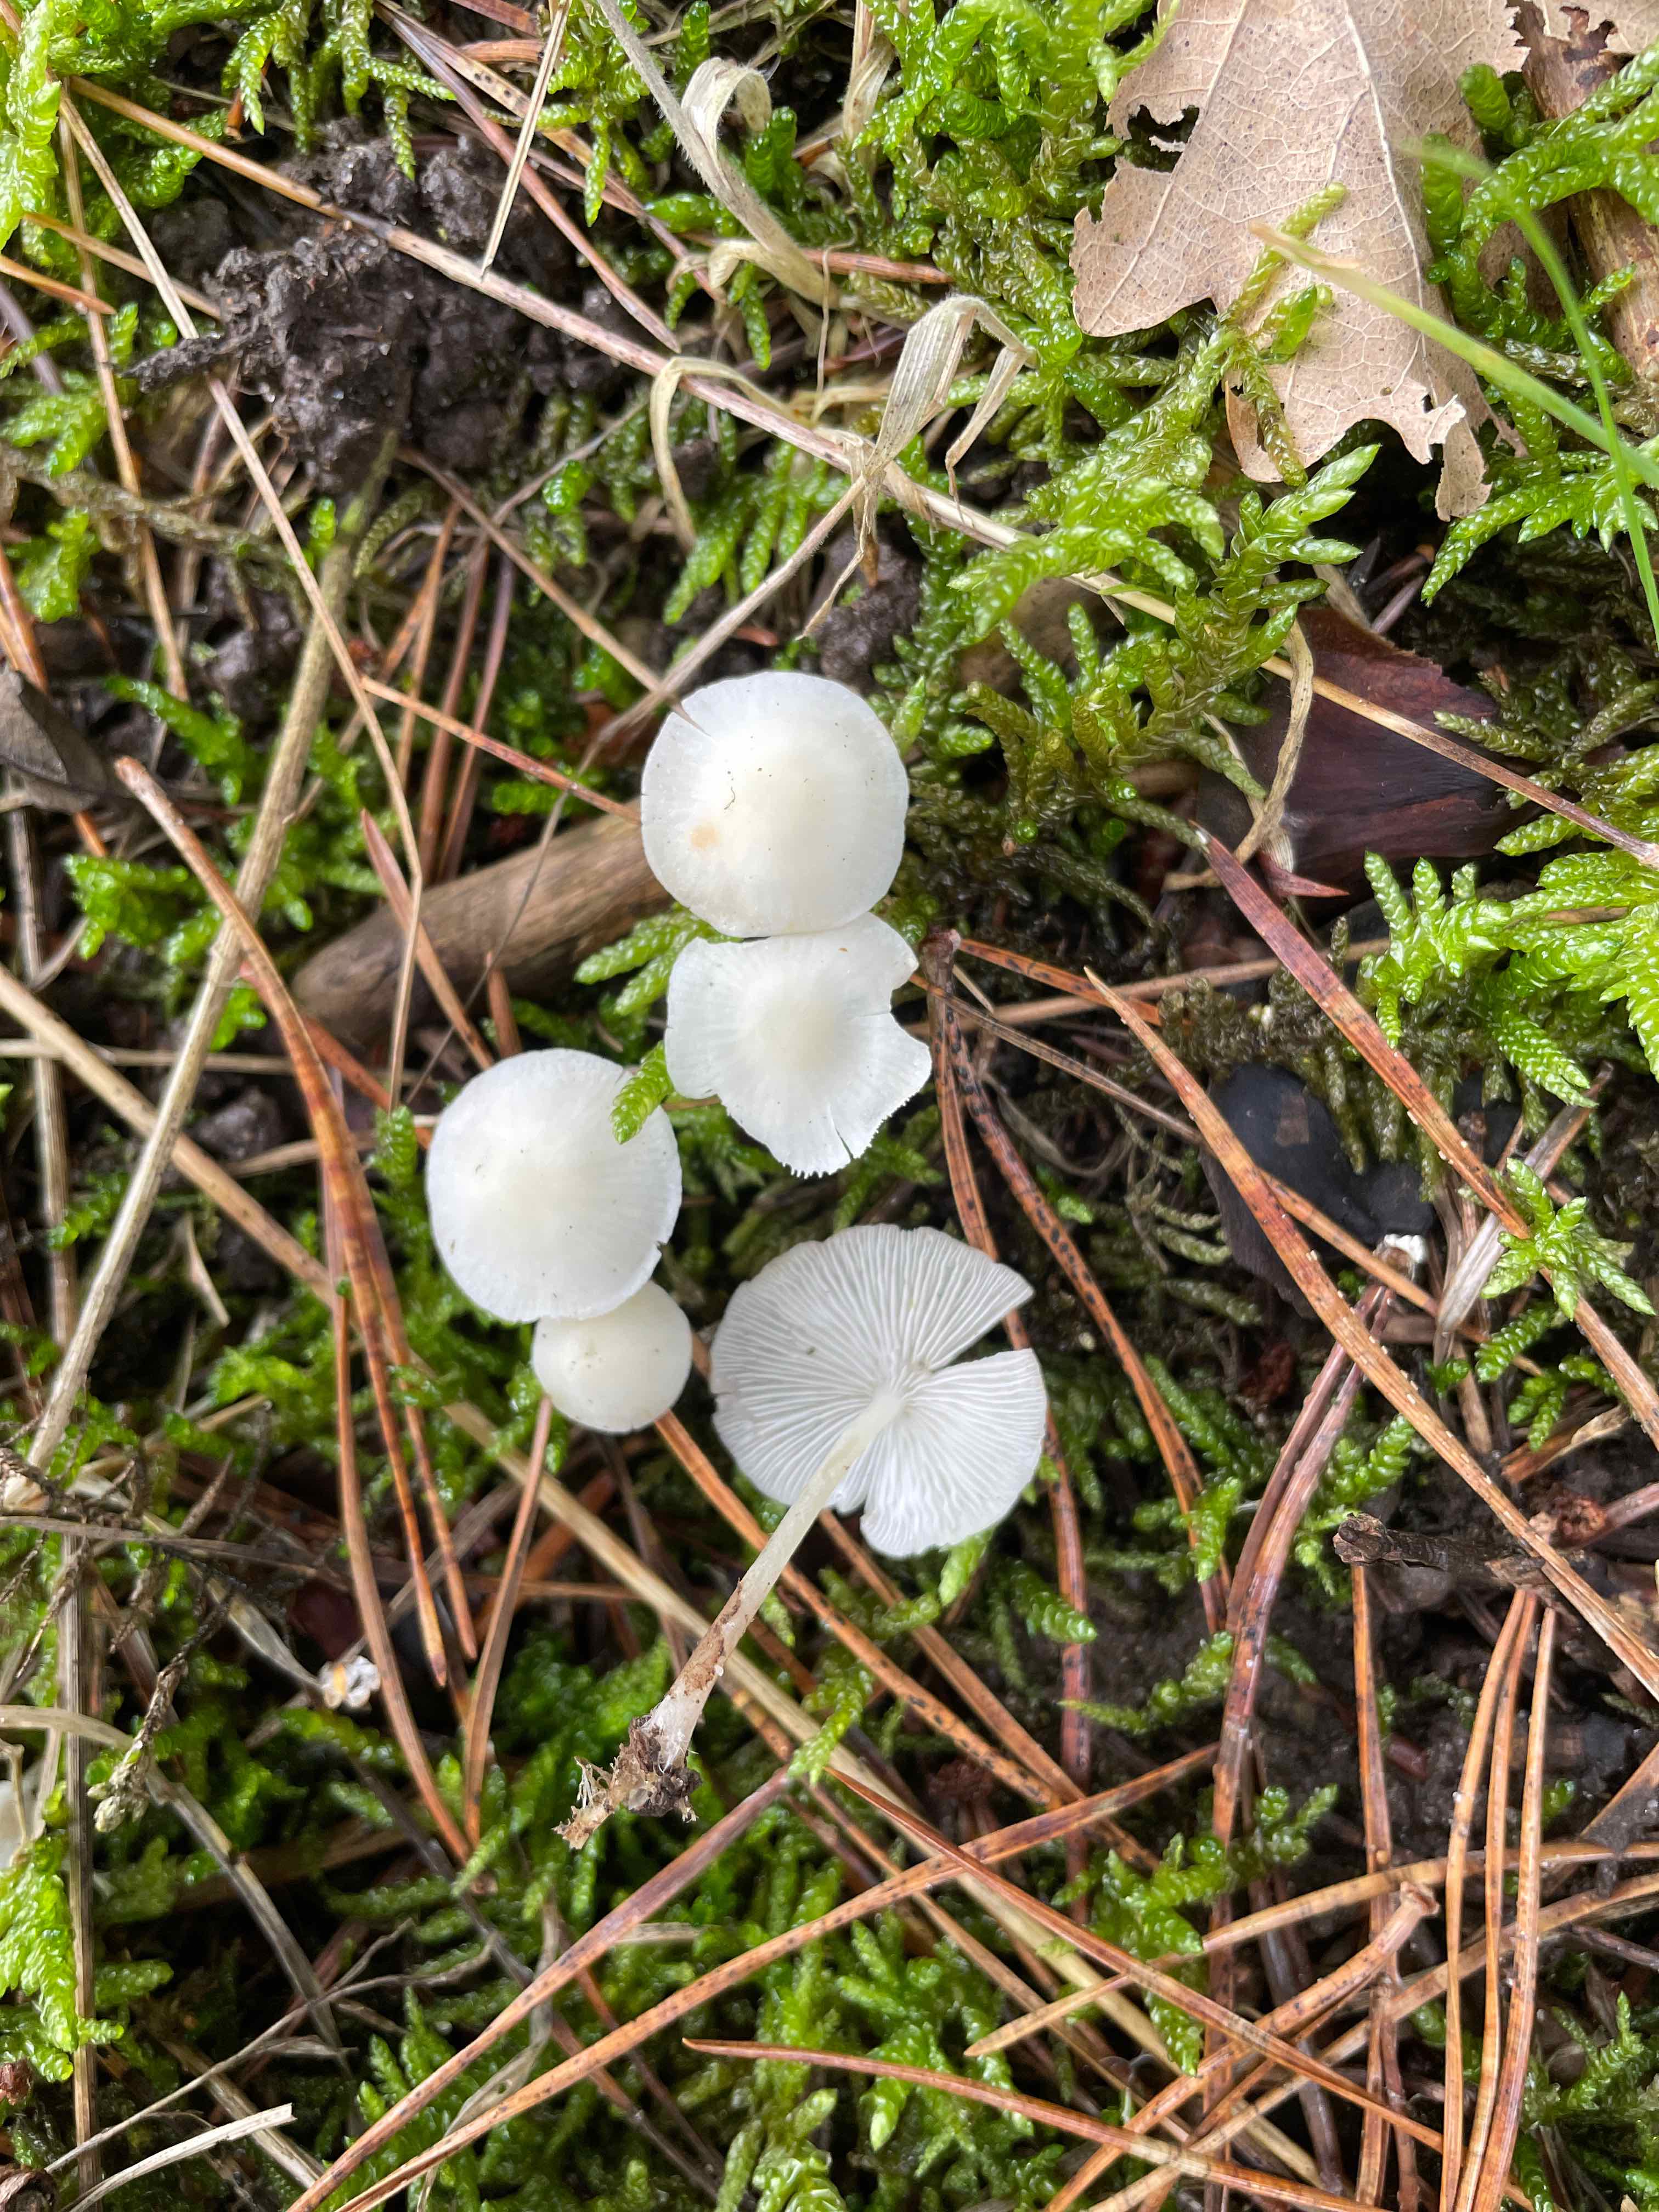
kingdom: Fungi
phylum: Basidiomycota
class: Agaricomycetes
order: Agaricales
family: Mycenaceae
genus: Hemimycena
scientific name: Hemimycena cucullata
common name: tætbladet huesvamp
